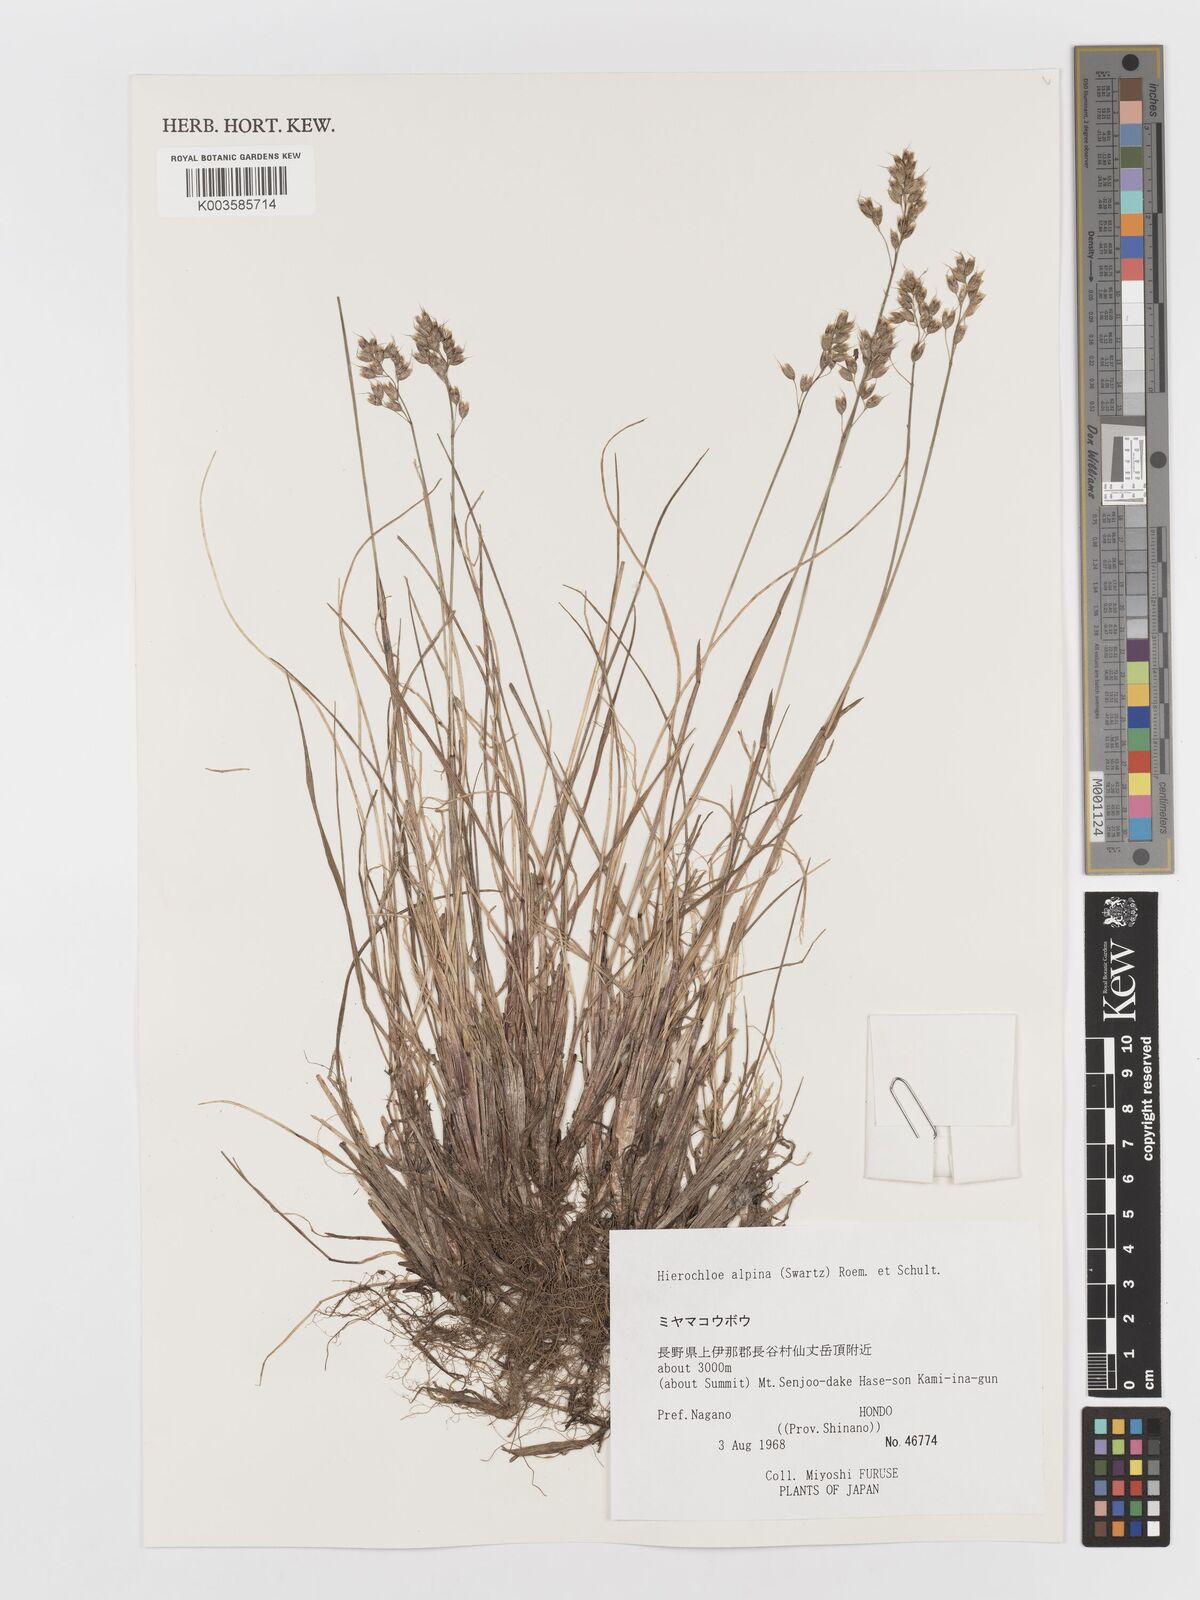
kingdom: Plantae
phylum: Tracheophyta
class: Liliopsida
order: Poales
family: Poaceae
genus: Anthoxanthum
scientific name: Anthoxanthum monticola
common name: Alpine sweetgrass
